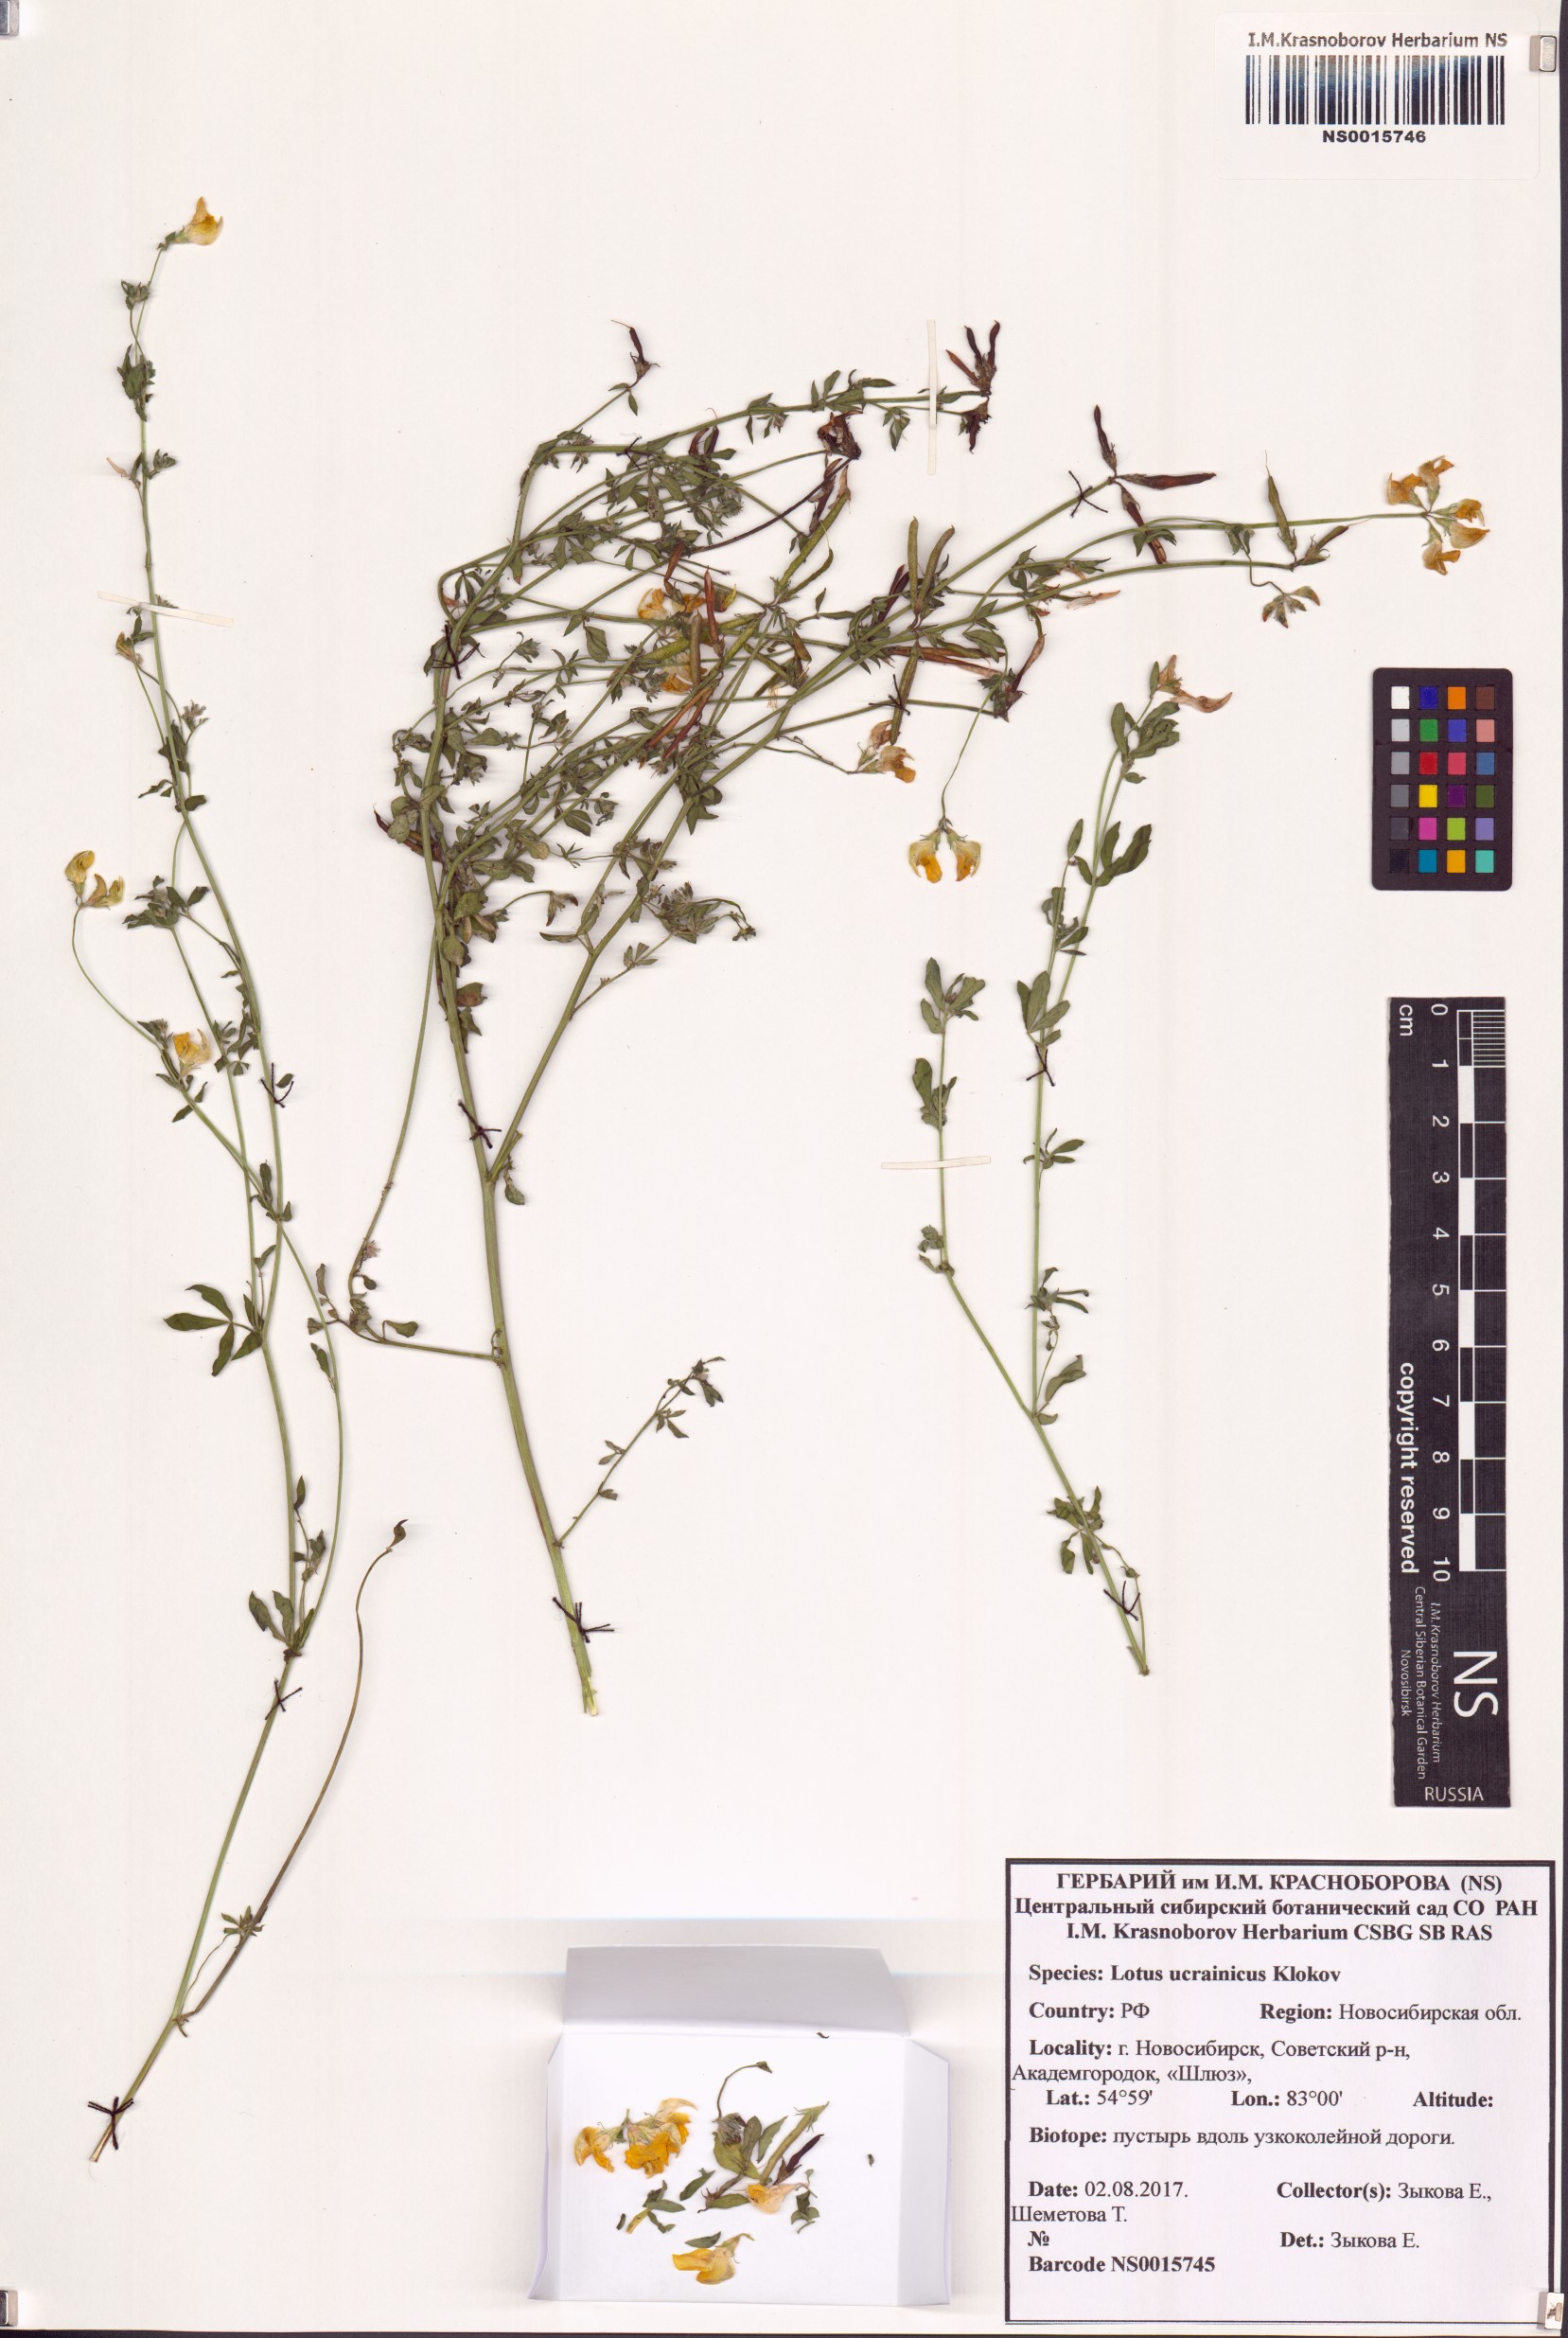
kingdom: Plantae
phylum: Tracheophyta
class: Magnoliopsida
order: Fabales
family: Fabaceae
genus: Lotus
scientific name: Lotus ucrainicus
